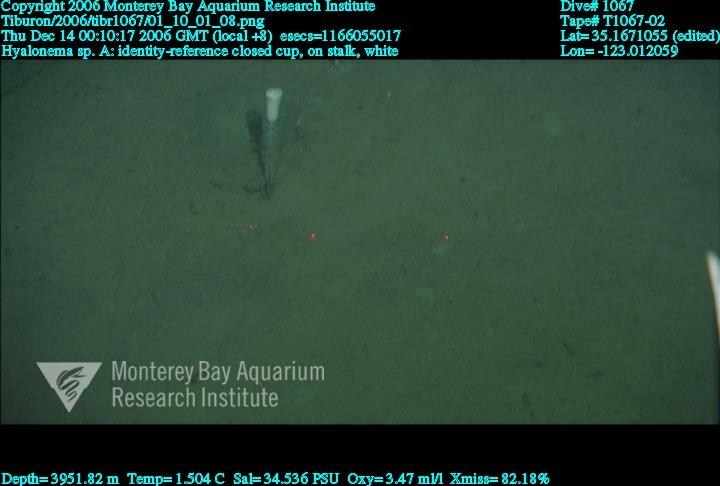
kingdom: Animalia
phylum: Porifera
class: Hexactinellida
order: Amphidiscosida
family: Hyalonematidae
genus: Hyalonema
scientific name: Hyalonema
